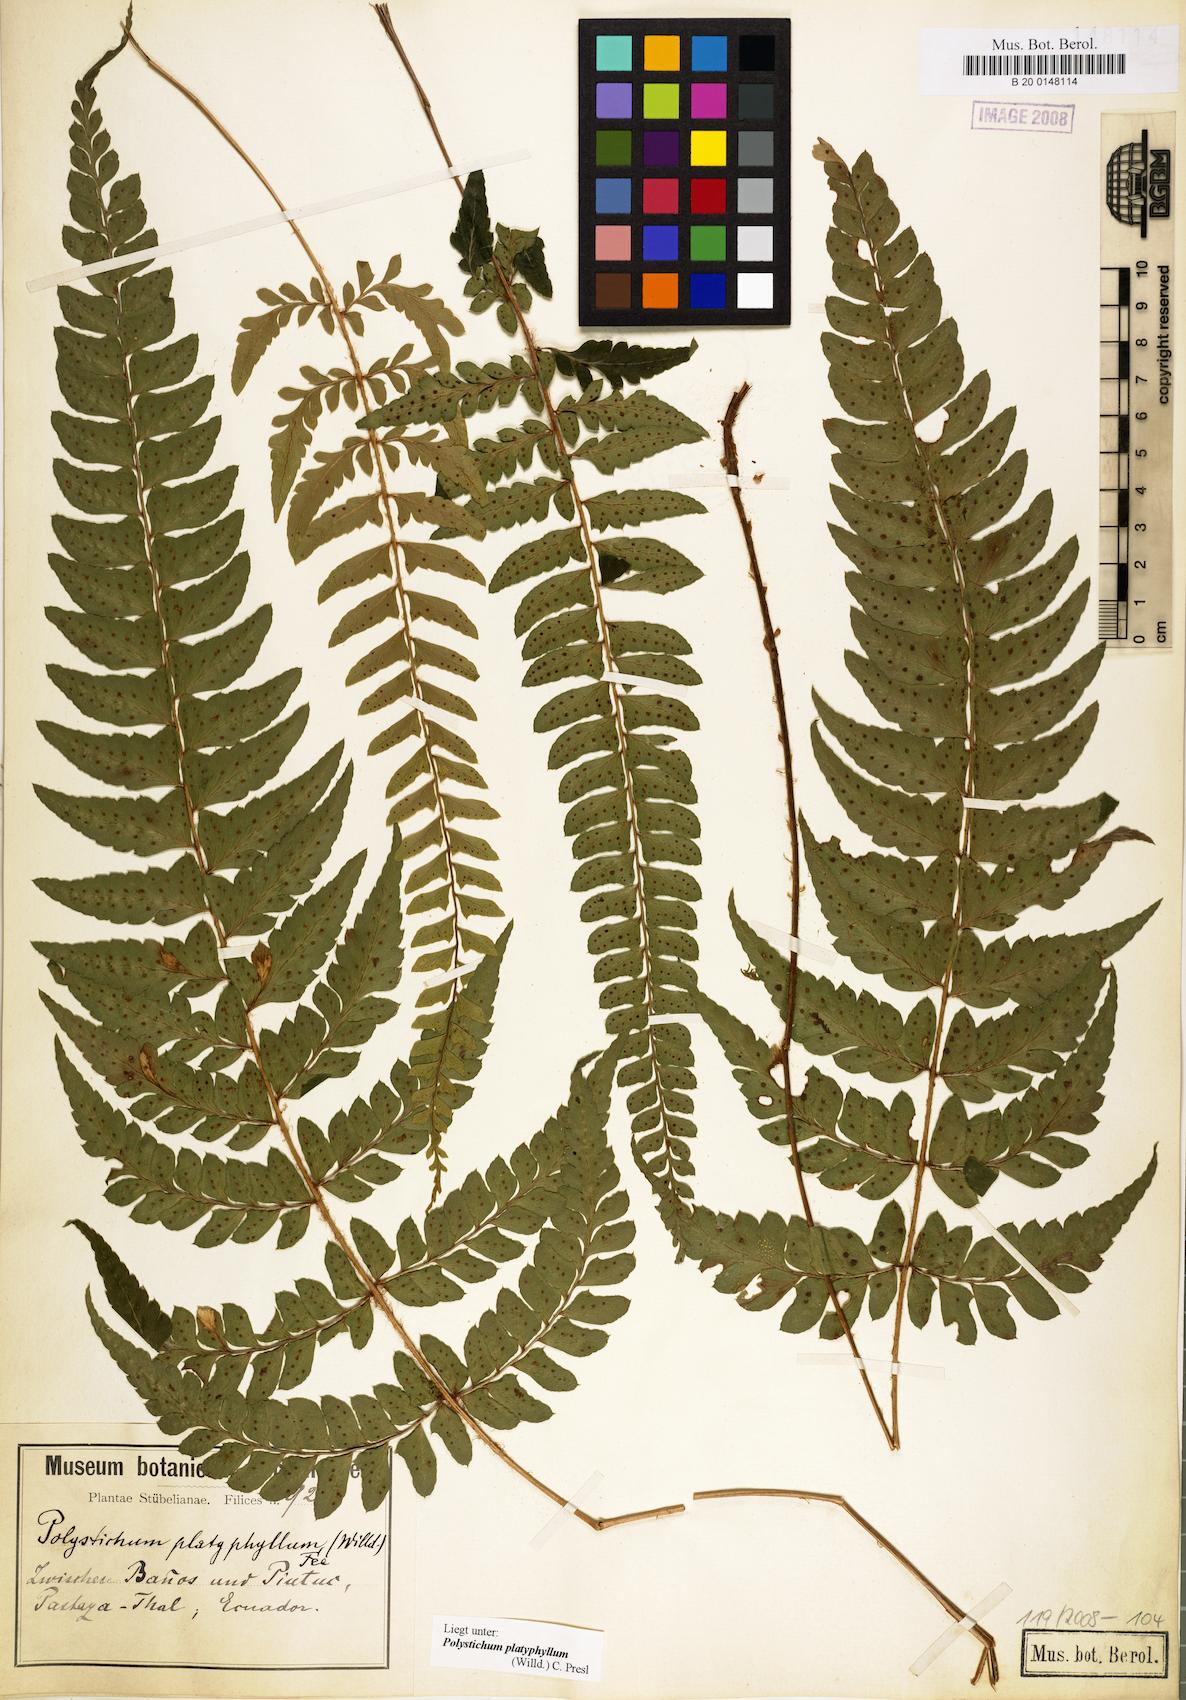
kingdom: Plantae
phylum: Tracheophyta
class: Polypodiopsida
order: Polypodiales
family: Dryopteridaceae
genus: Polystichum
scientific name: Polystichum platyphyllum
